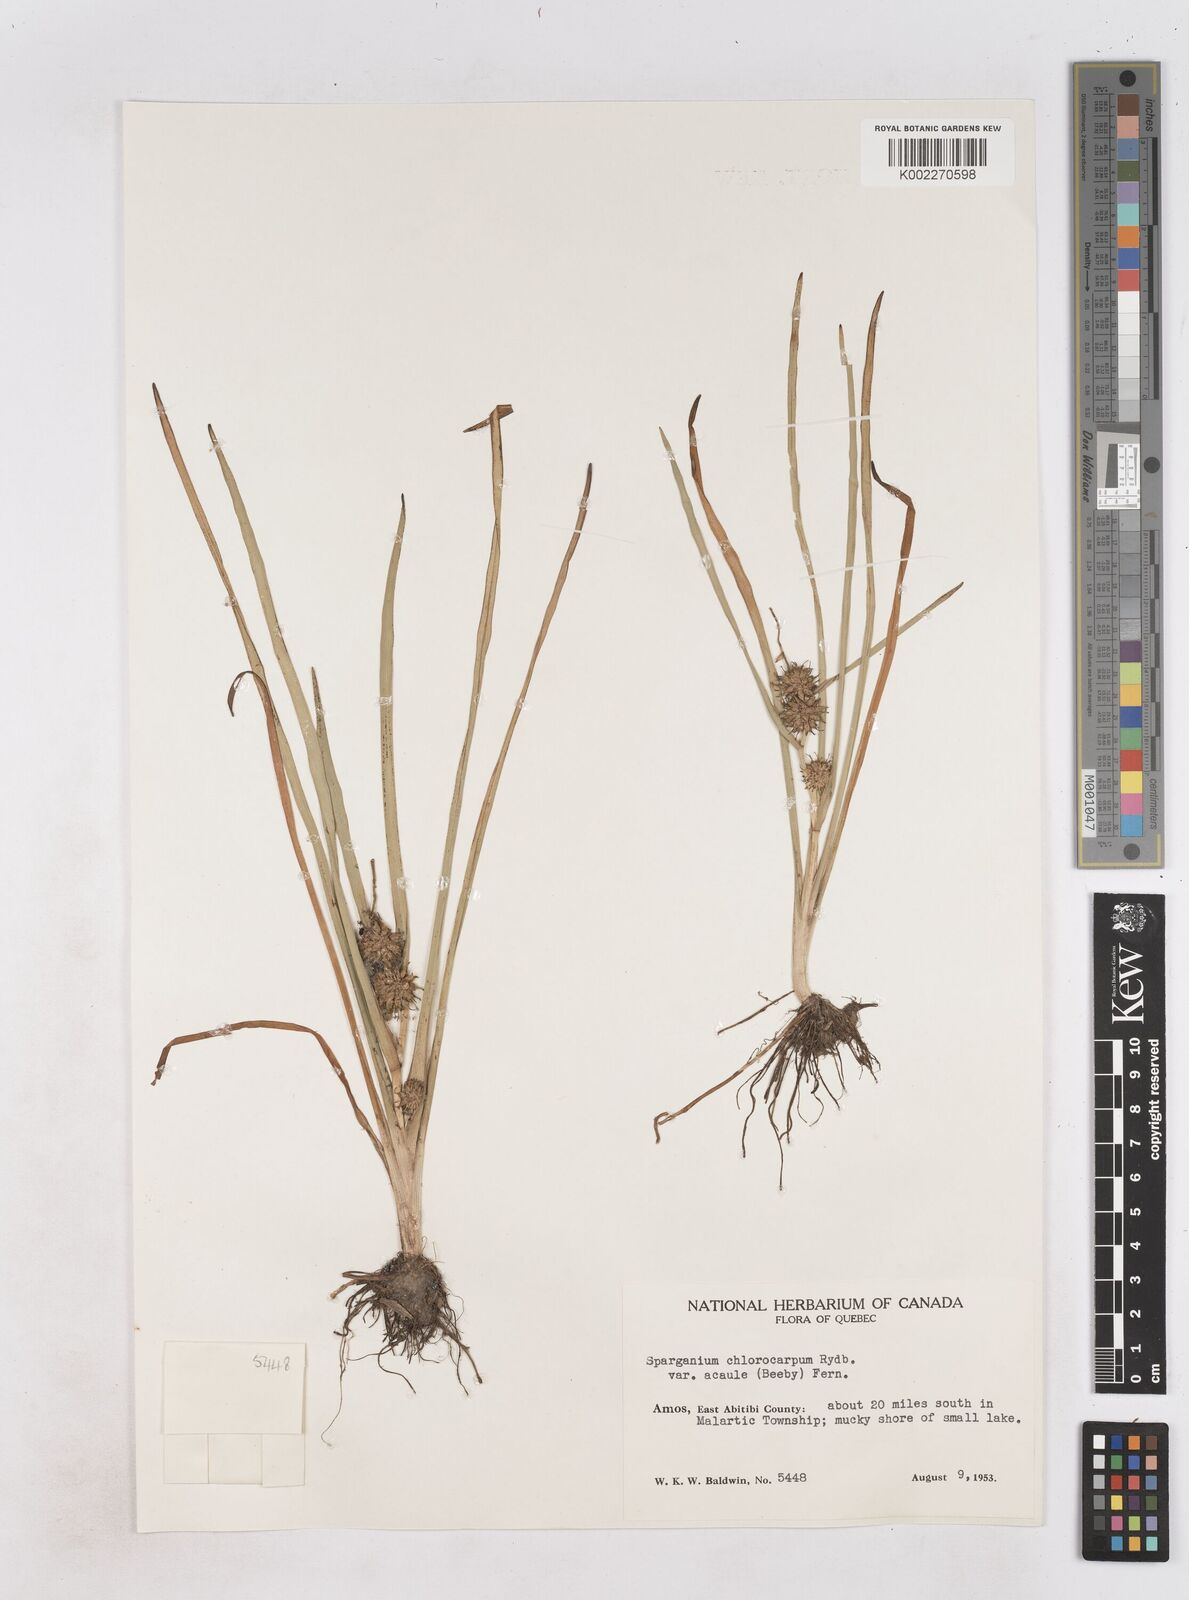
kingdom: Plantae
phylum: Tracheophyta
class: Liliopsida
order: Poales
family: Typhaceae
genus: Sparganium
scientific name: Sparganium emersum
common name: Unbranched bur-reed
